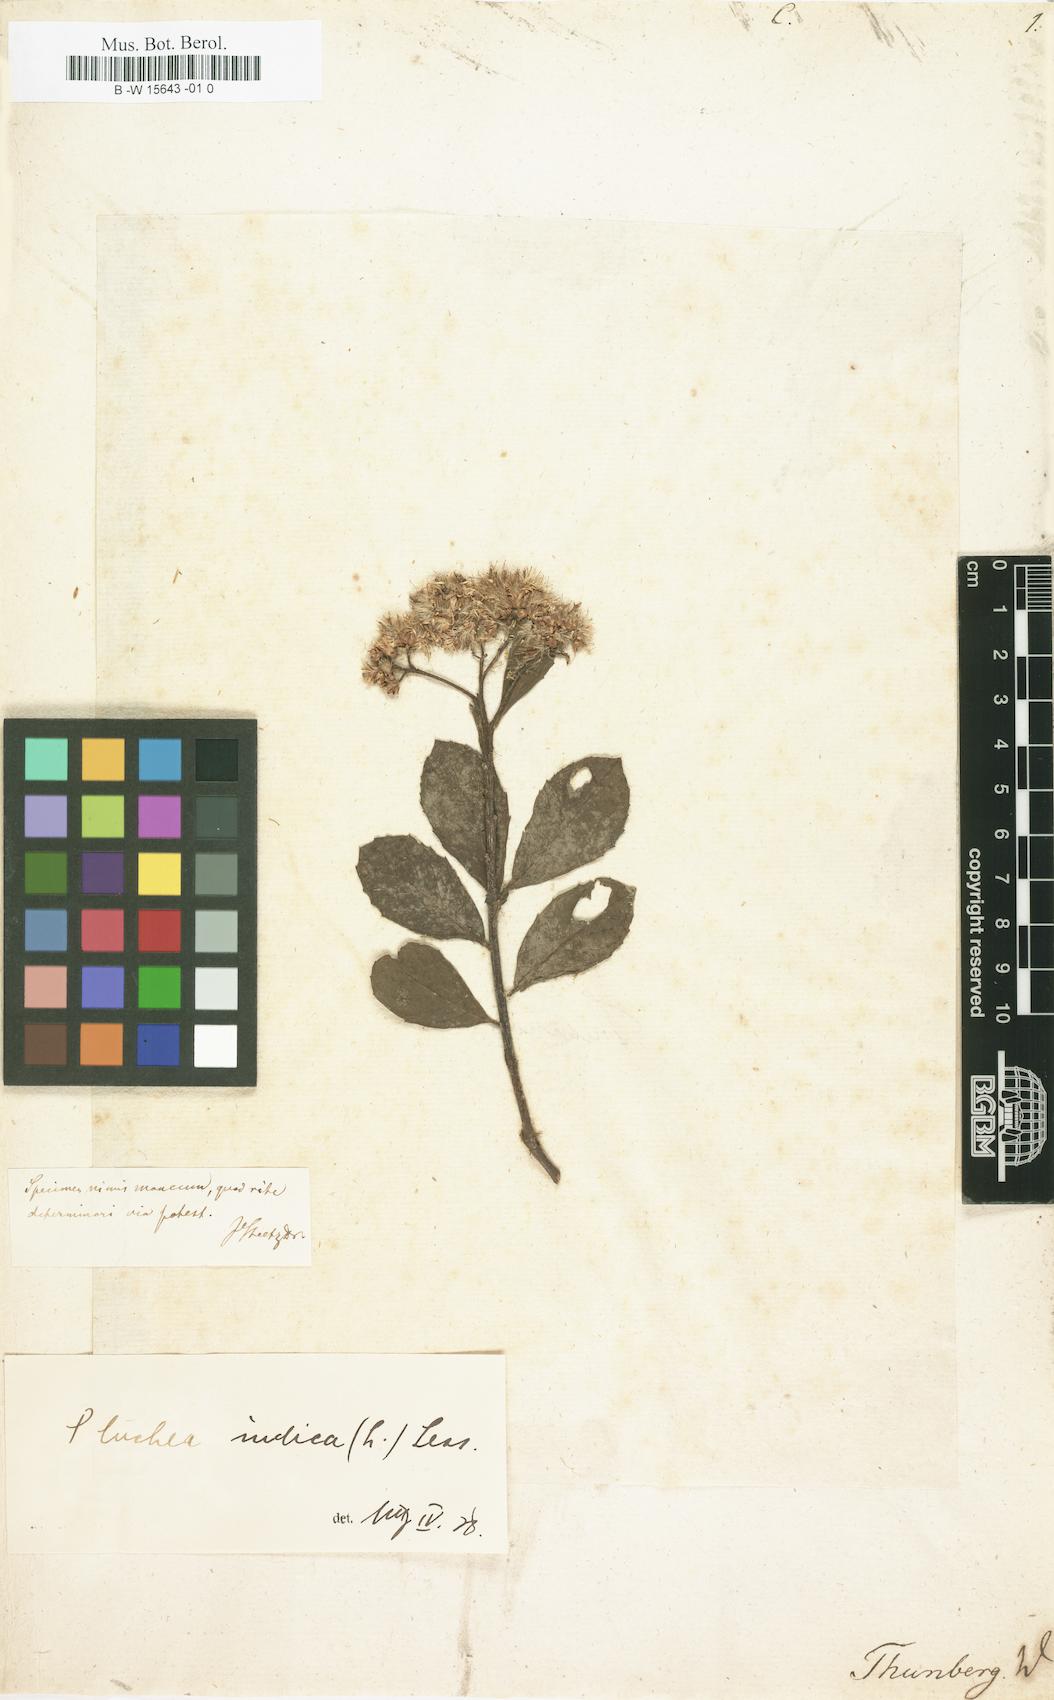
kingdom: Plantae
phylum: Tracheophyta
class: Magnoliopsida
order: Asterales
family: Asteraceae
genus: Conyza
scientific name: Conyza
